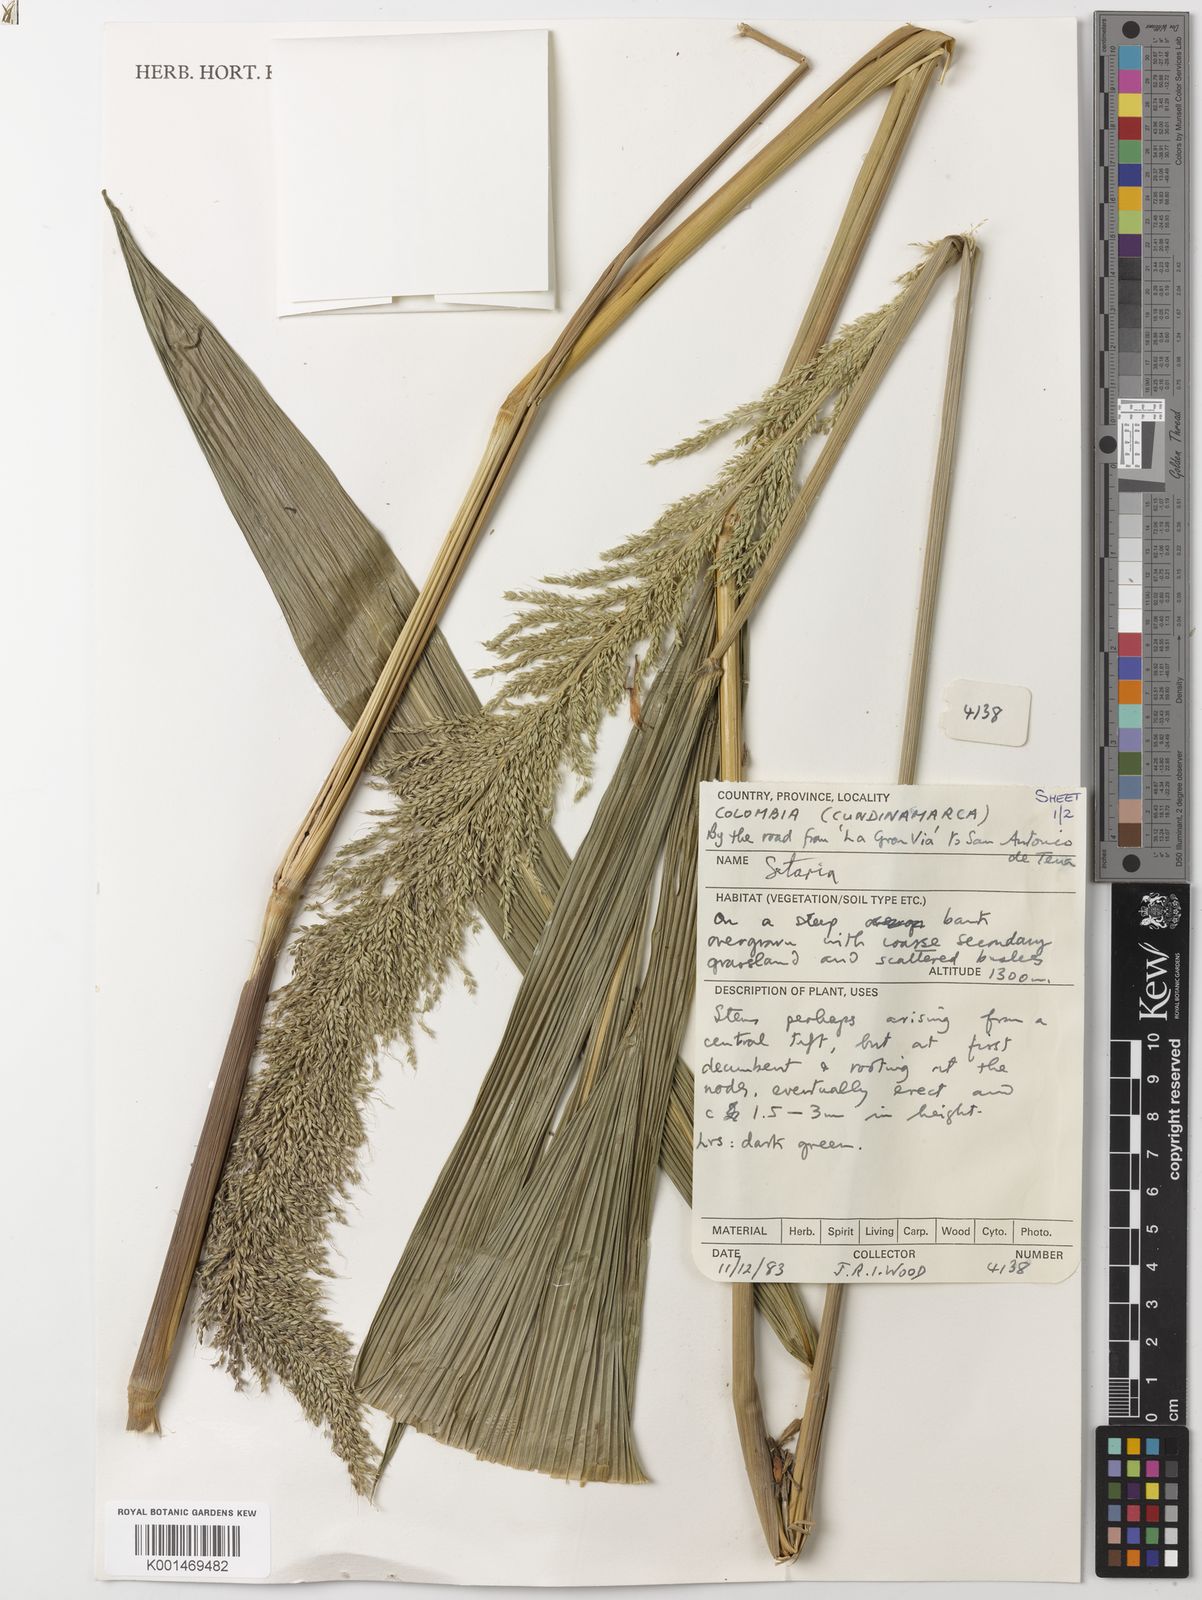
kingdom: Plantae
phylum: Tracheophyta
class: Liliopsida
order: Poales
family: Poaceae
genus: Setaria
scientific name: Setaria palmifolia
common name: Broadleaved bristlegrass
